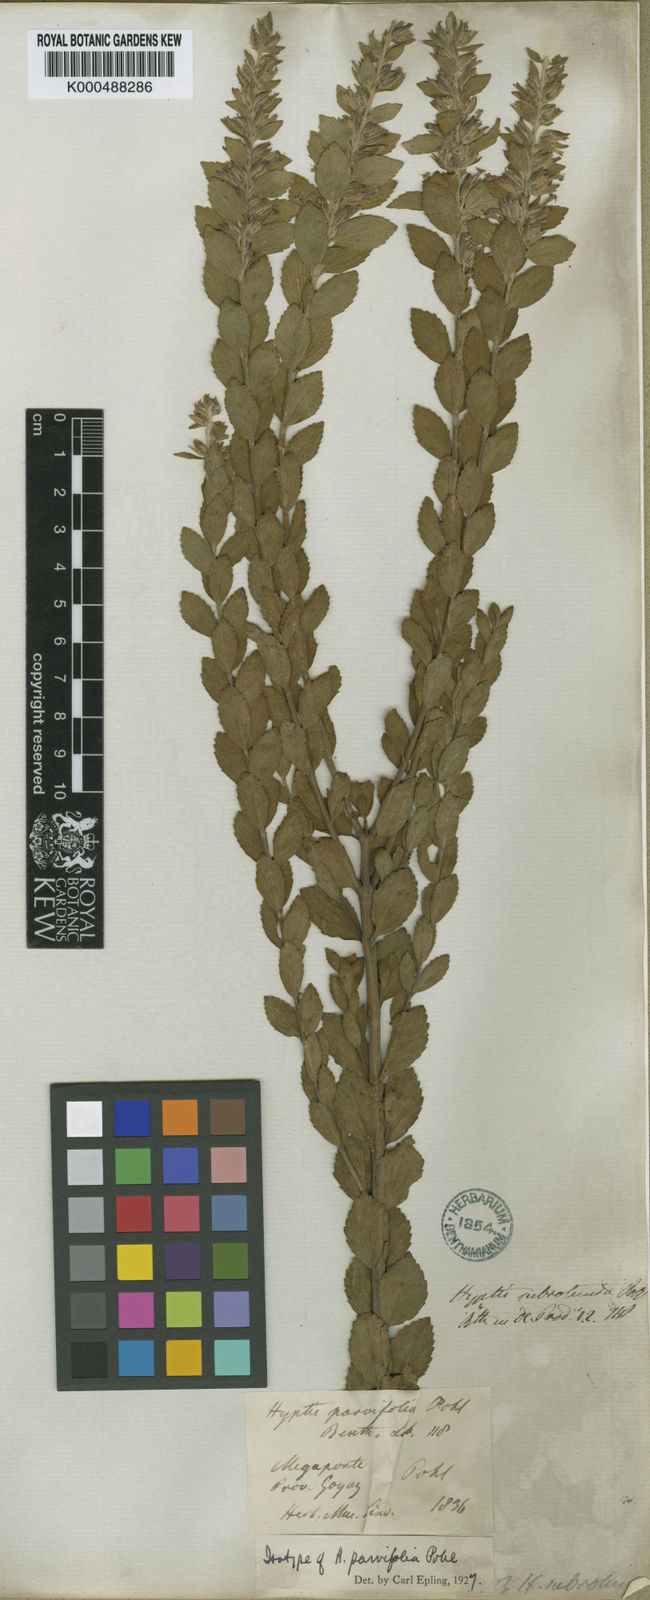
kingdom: Plantae
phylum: Tracheophyta
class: Magnoliopsida
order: Lamiales
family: Lamiaceae
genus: Cantinoa
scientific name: Cantinoa subrotunda
